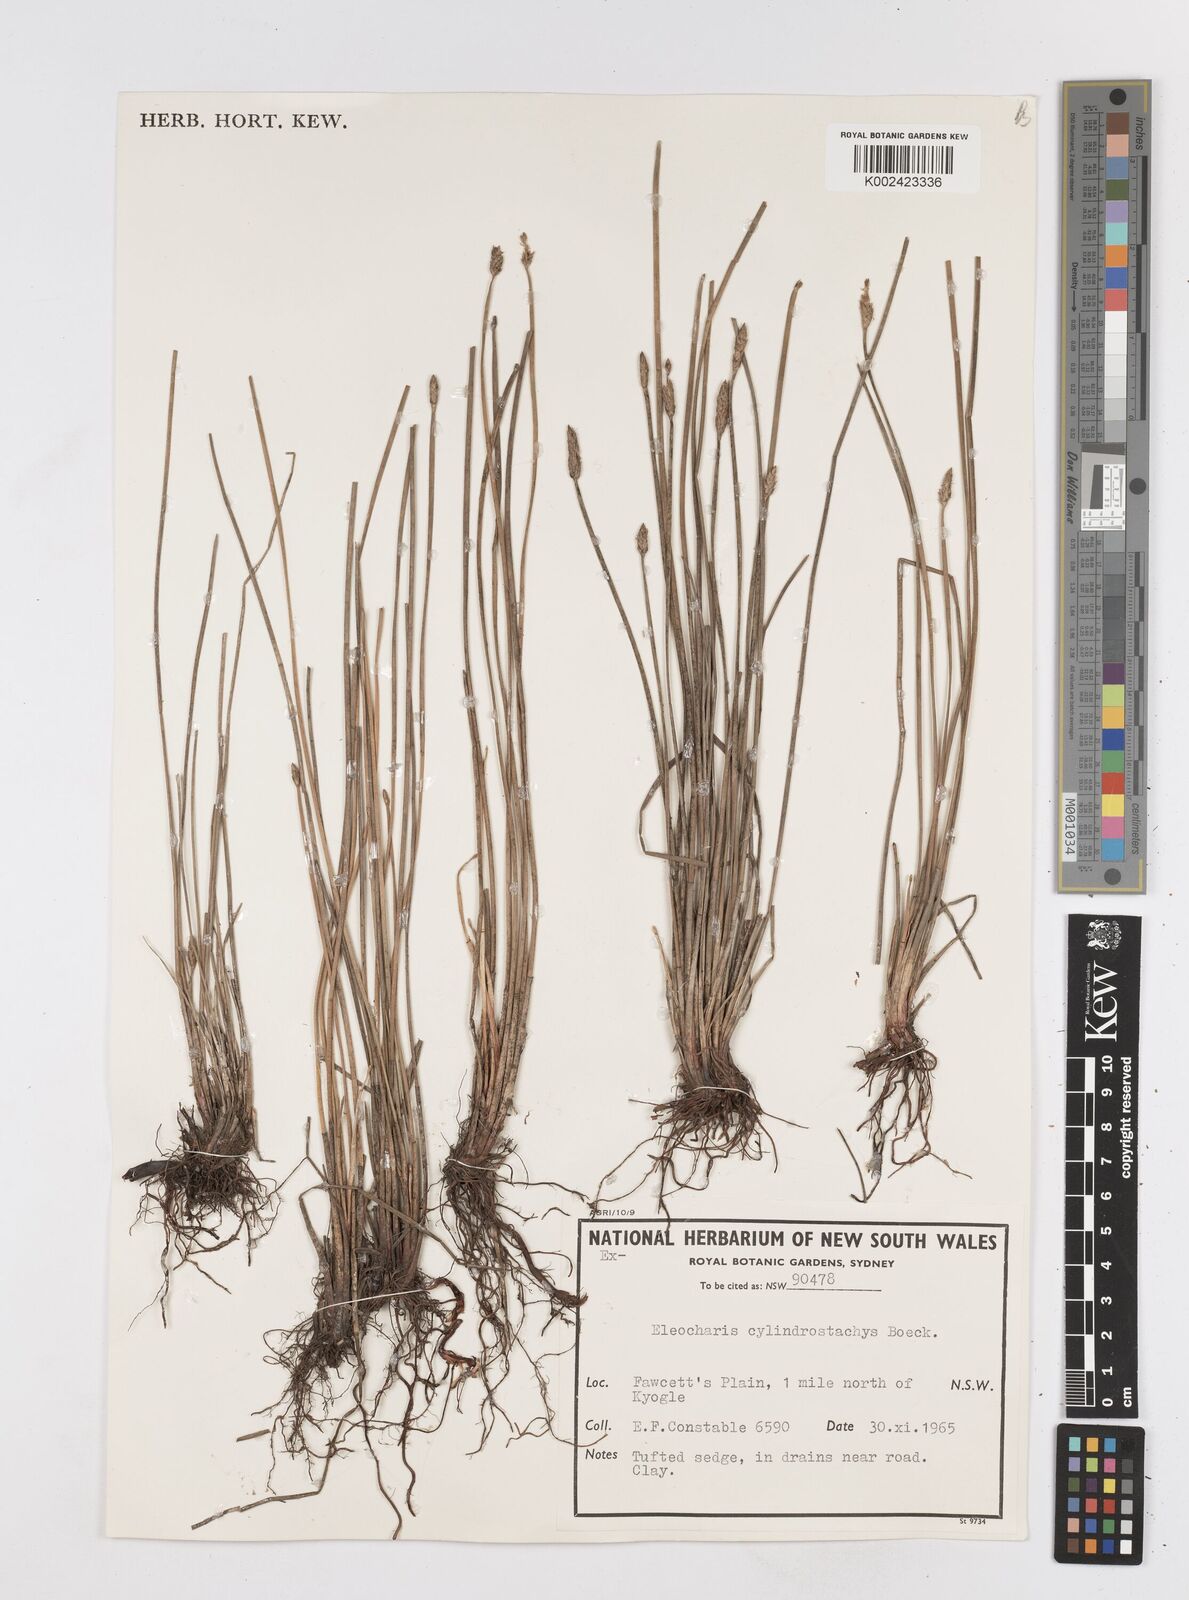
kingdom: Plantae
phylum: Tracheophyta
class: Liliopsida
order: Poales
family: Cyperaceae
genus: Eleocharis
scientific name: Eleocharis cylindrostachys
